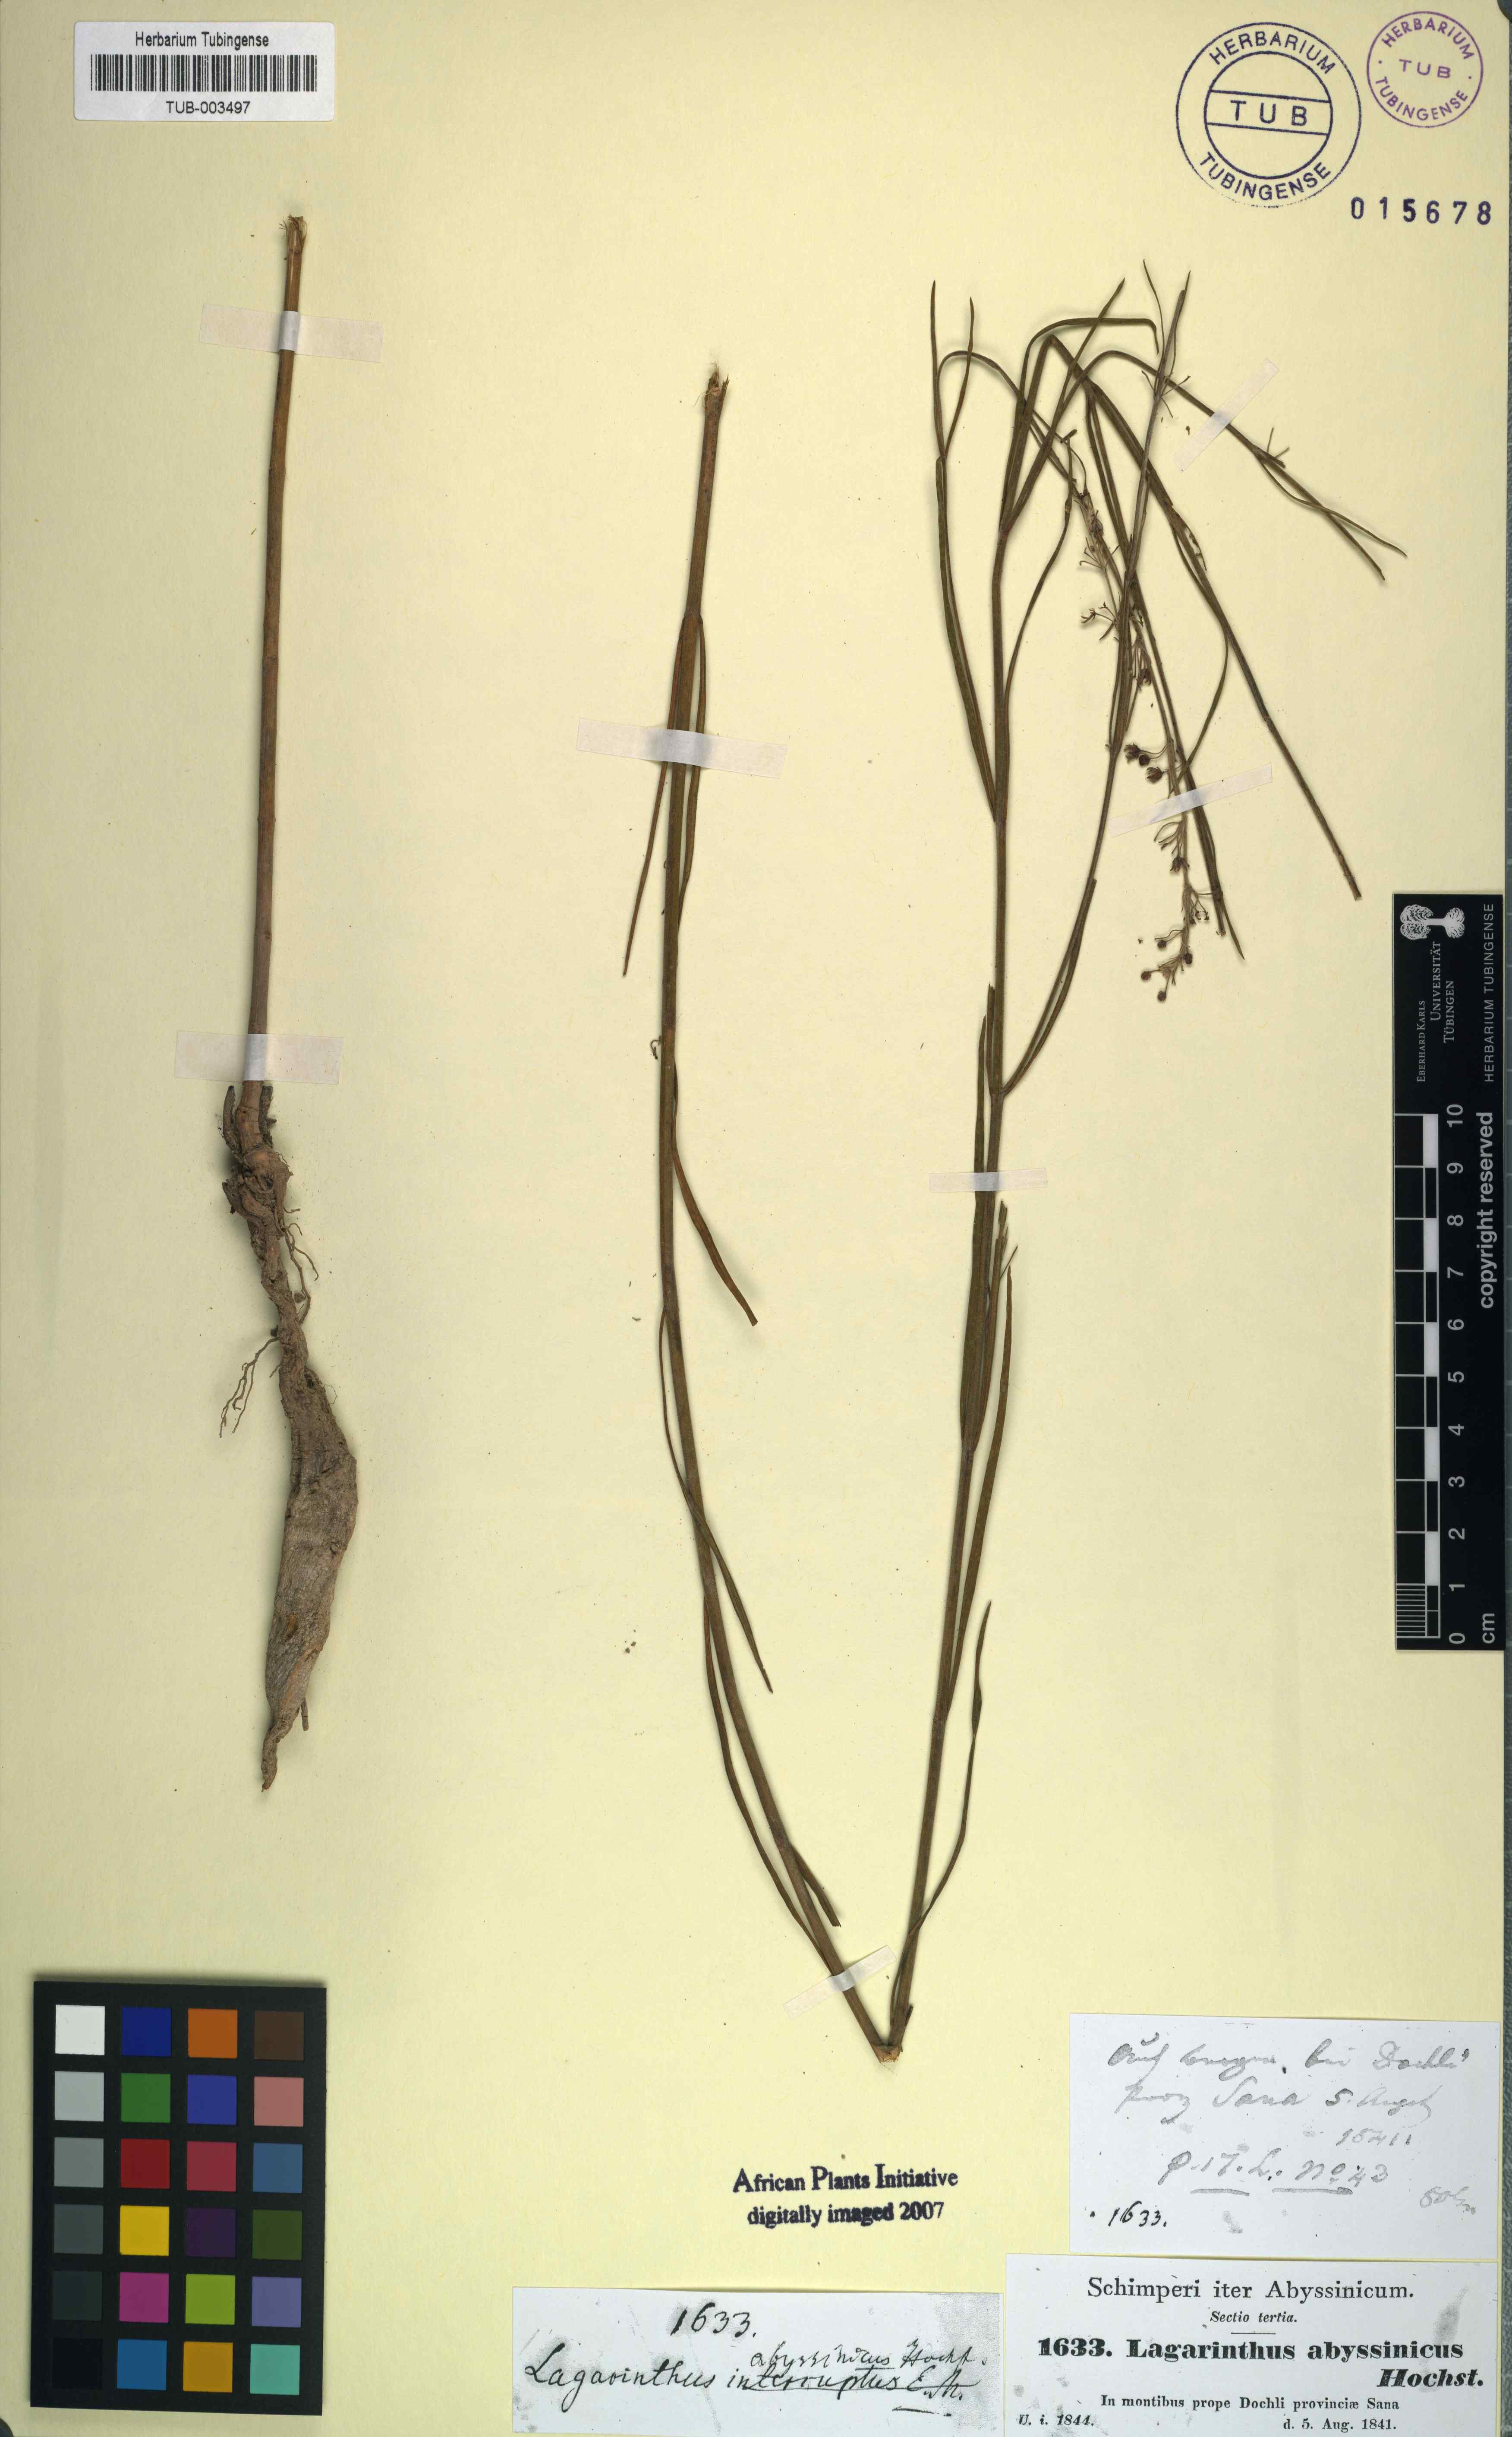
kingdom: Plantae
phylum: Tracheophyta
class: Magnoliopsida
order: Gentianales
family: Apocynaceae
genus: Aspidoglossum
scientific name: Aspidoglossum interruptum
